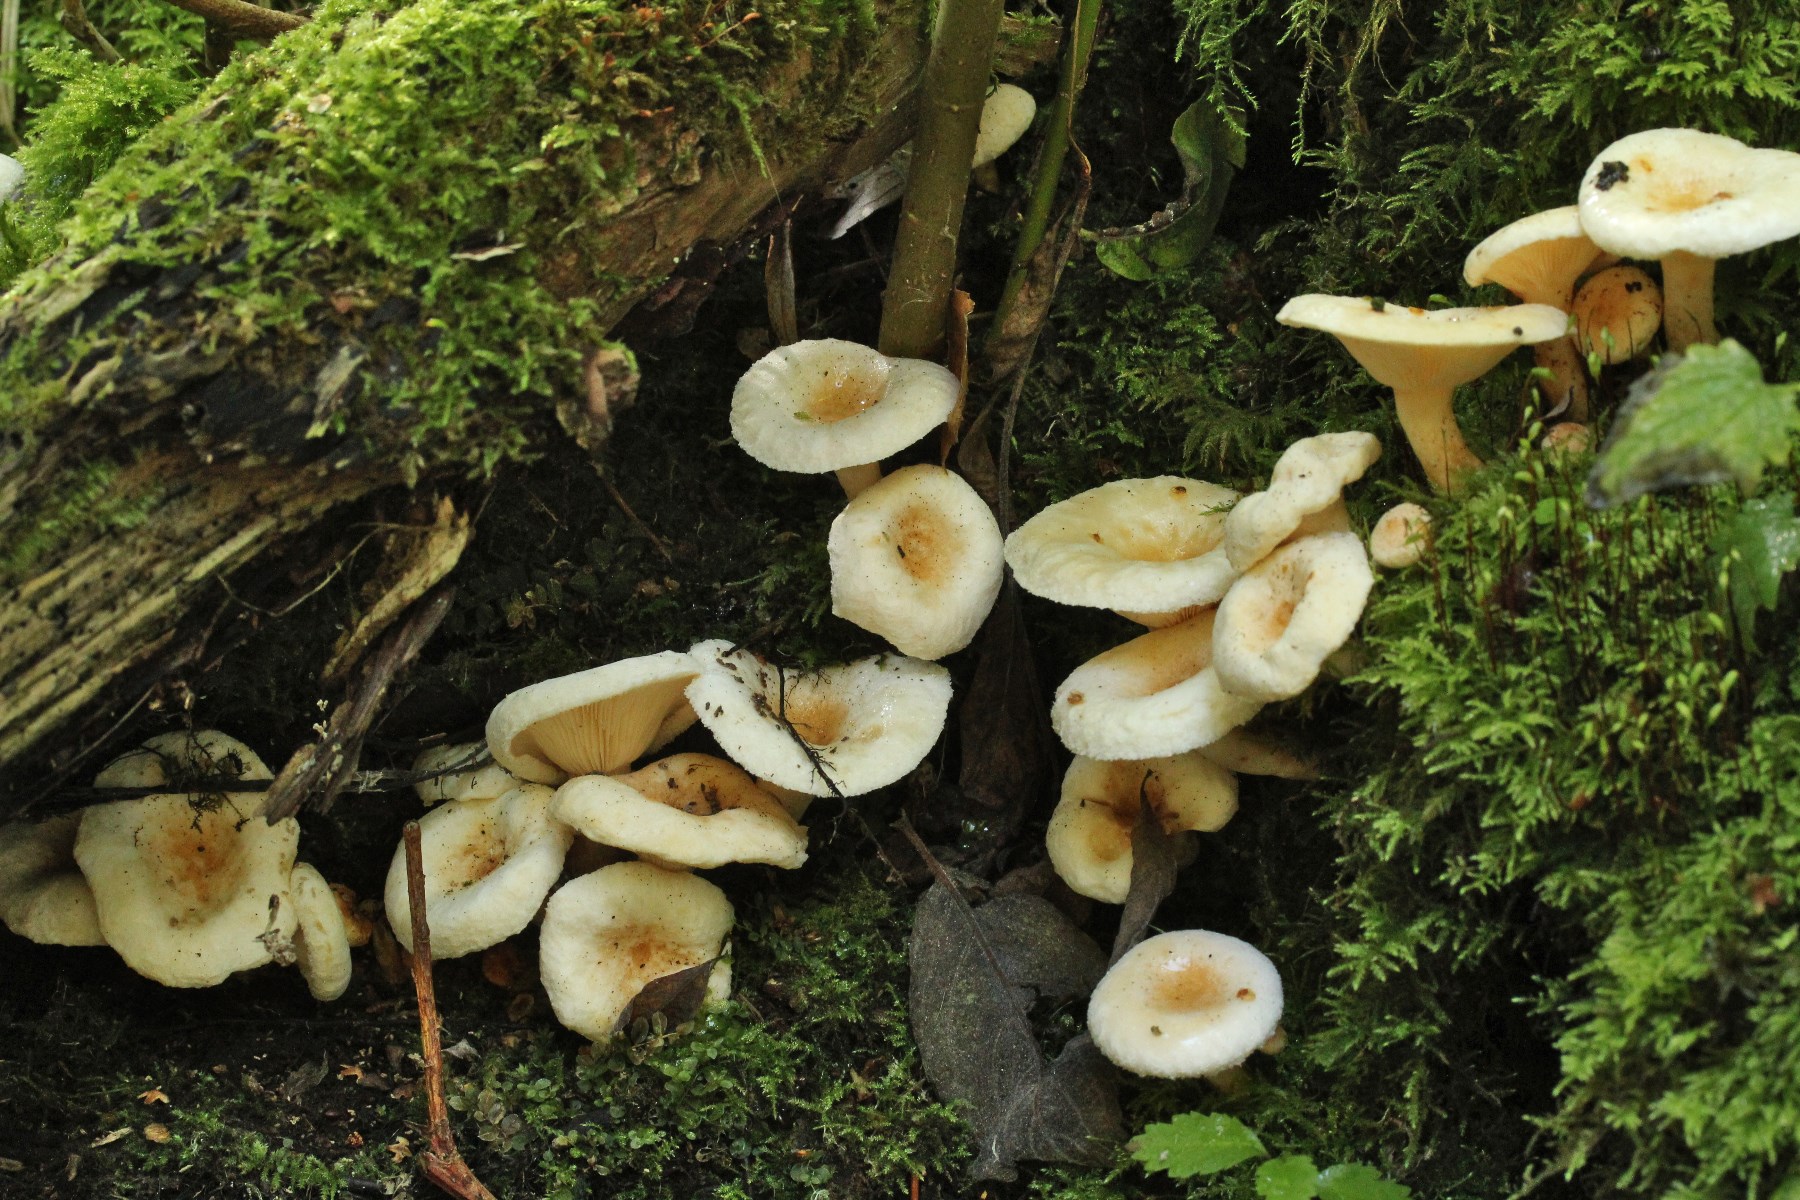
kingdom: Fungi
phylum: Basidiomycota
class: Agaricomycetes
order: Russulales
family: Russulaceae
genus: Lactarius
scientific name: Lactarius scoticus
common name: tørve-mælkehat
